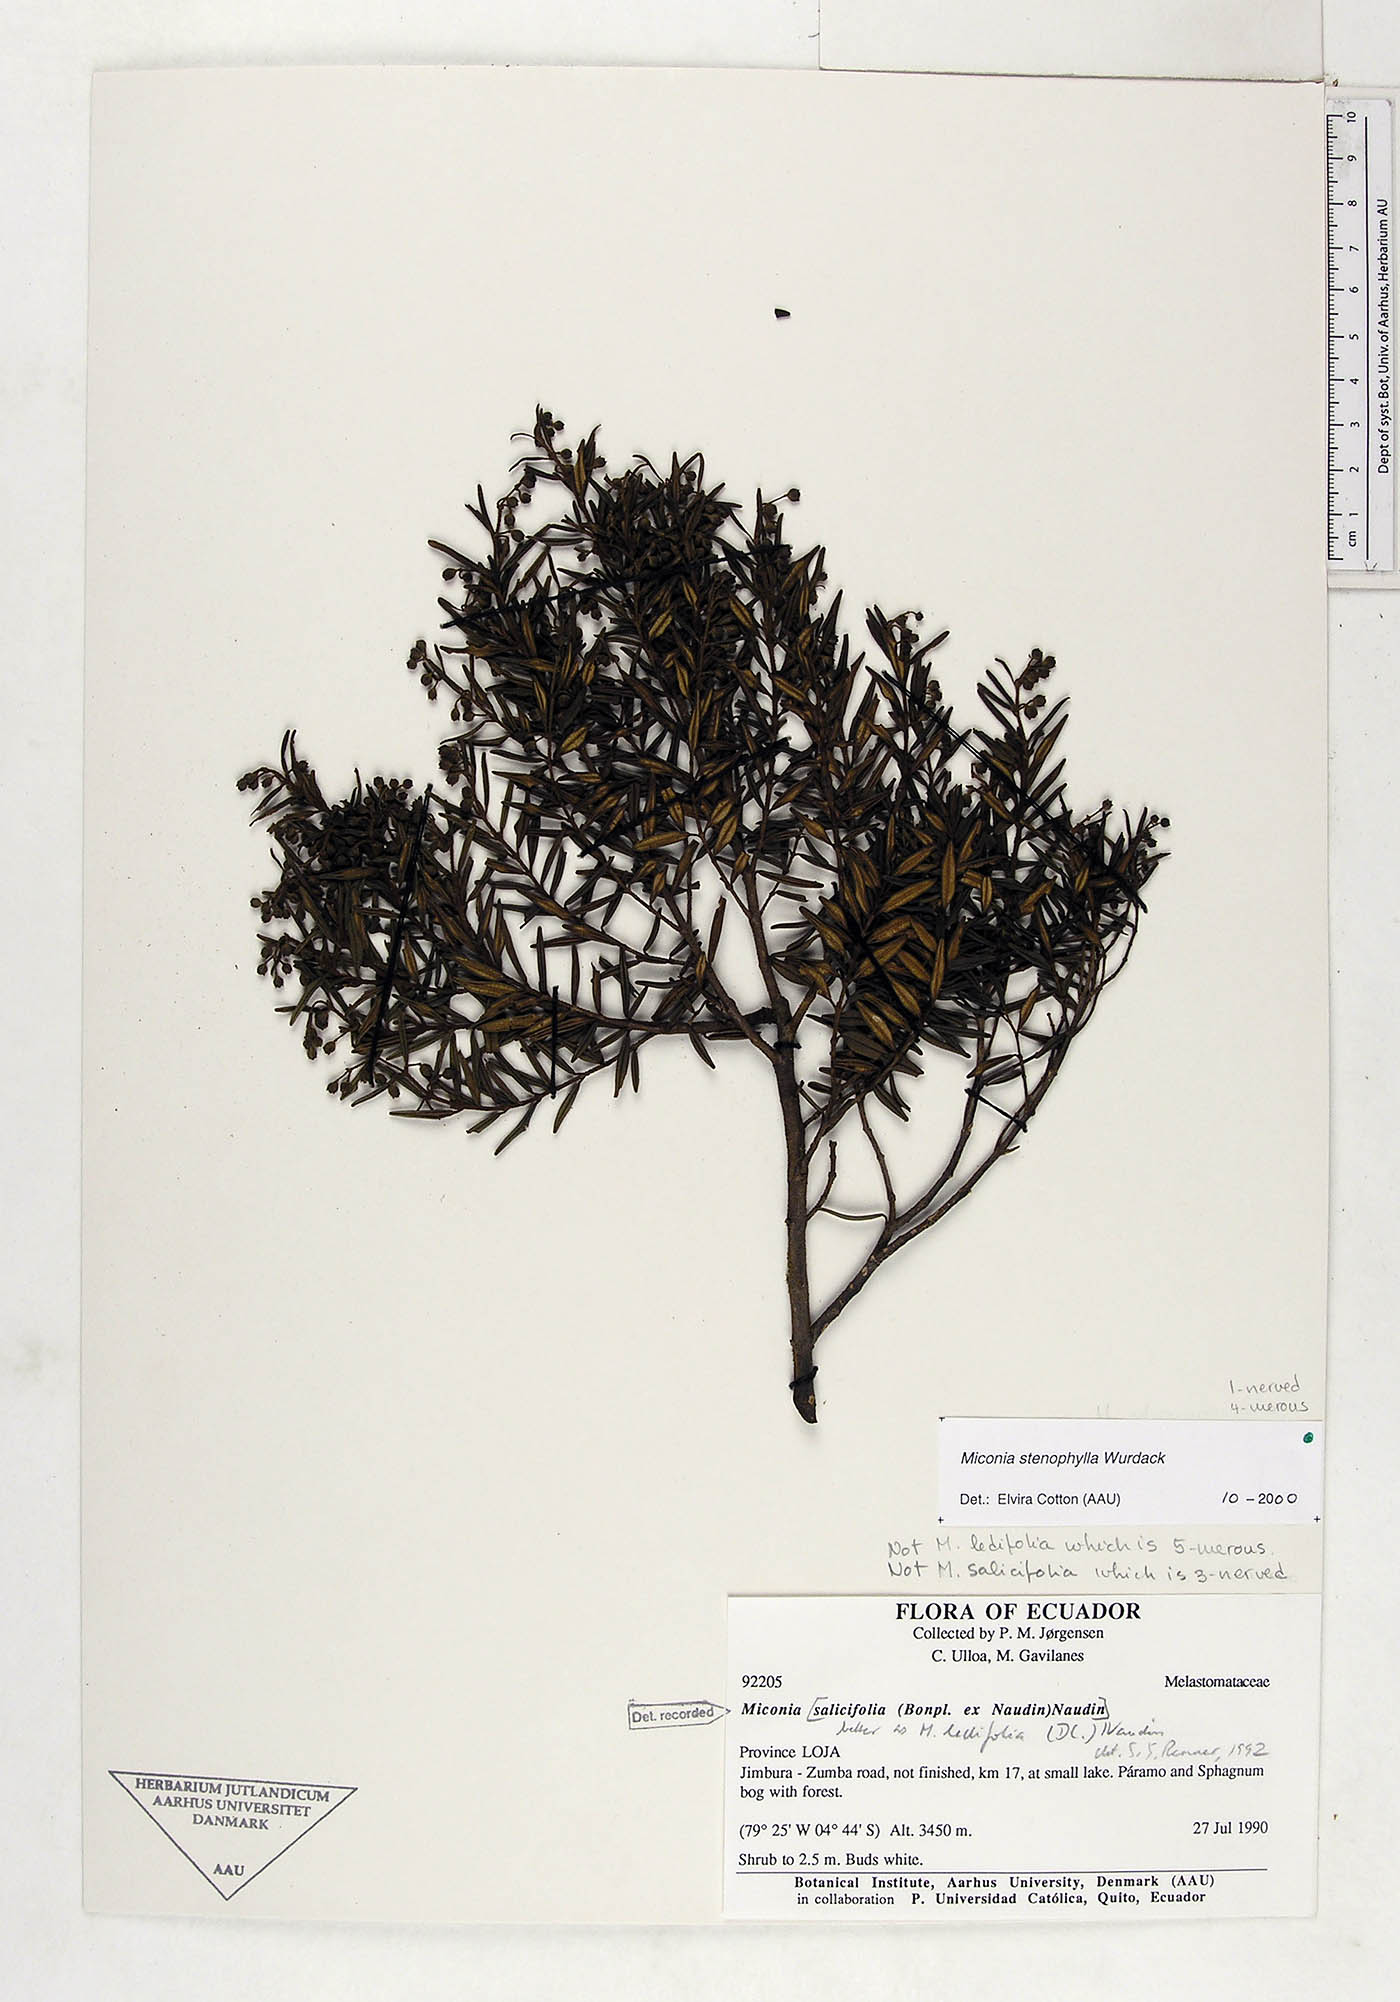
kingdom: Plantae
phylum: Tracheophyta
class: Magnoliopsida
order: Myrtales
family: Melastomataceae
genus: Miconia
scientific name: Miconia ledifolia
